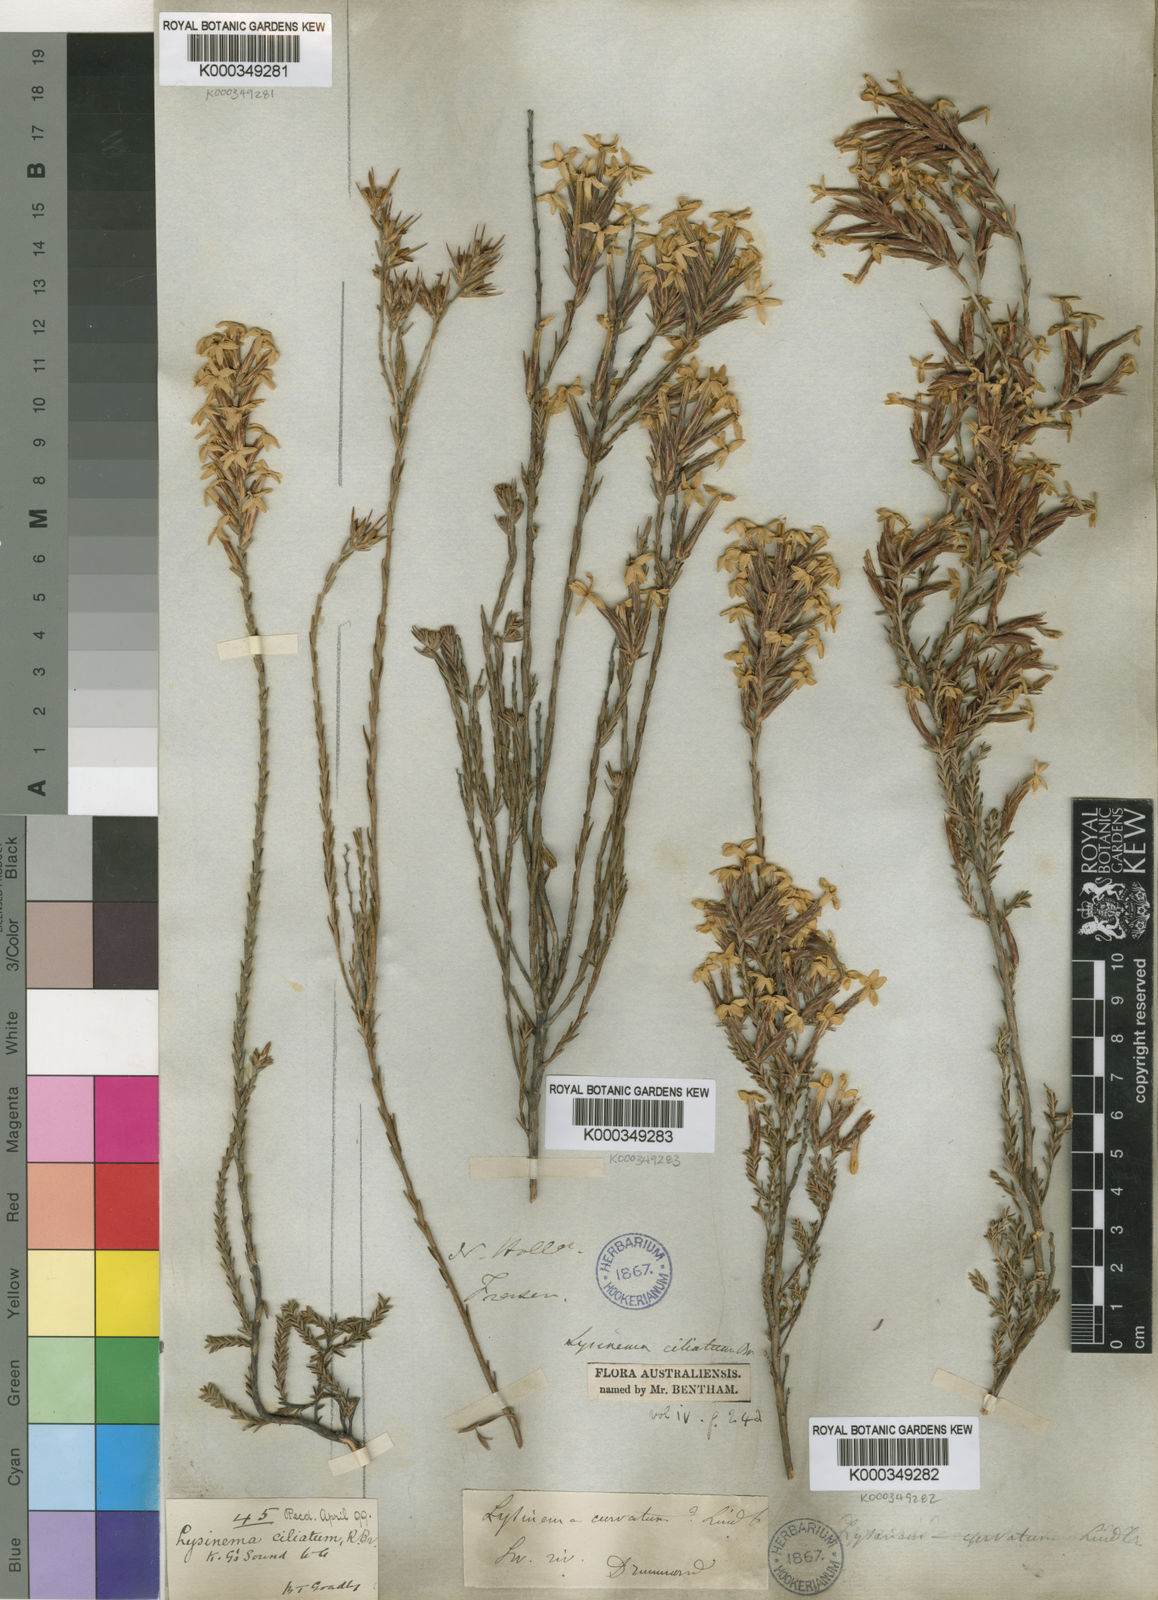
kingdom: Plantae
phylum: Tracheophyta
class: Magnoliopsida
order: Ericales
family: Ericaceae
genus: Lysinema
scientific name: Lysinema ciliatum
